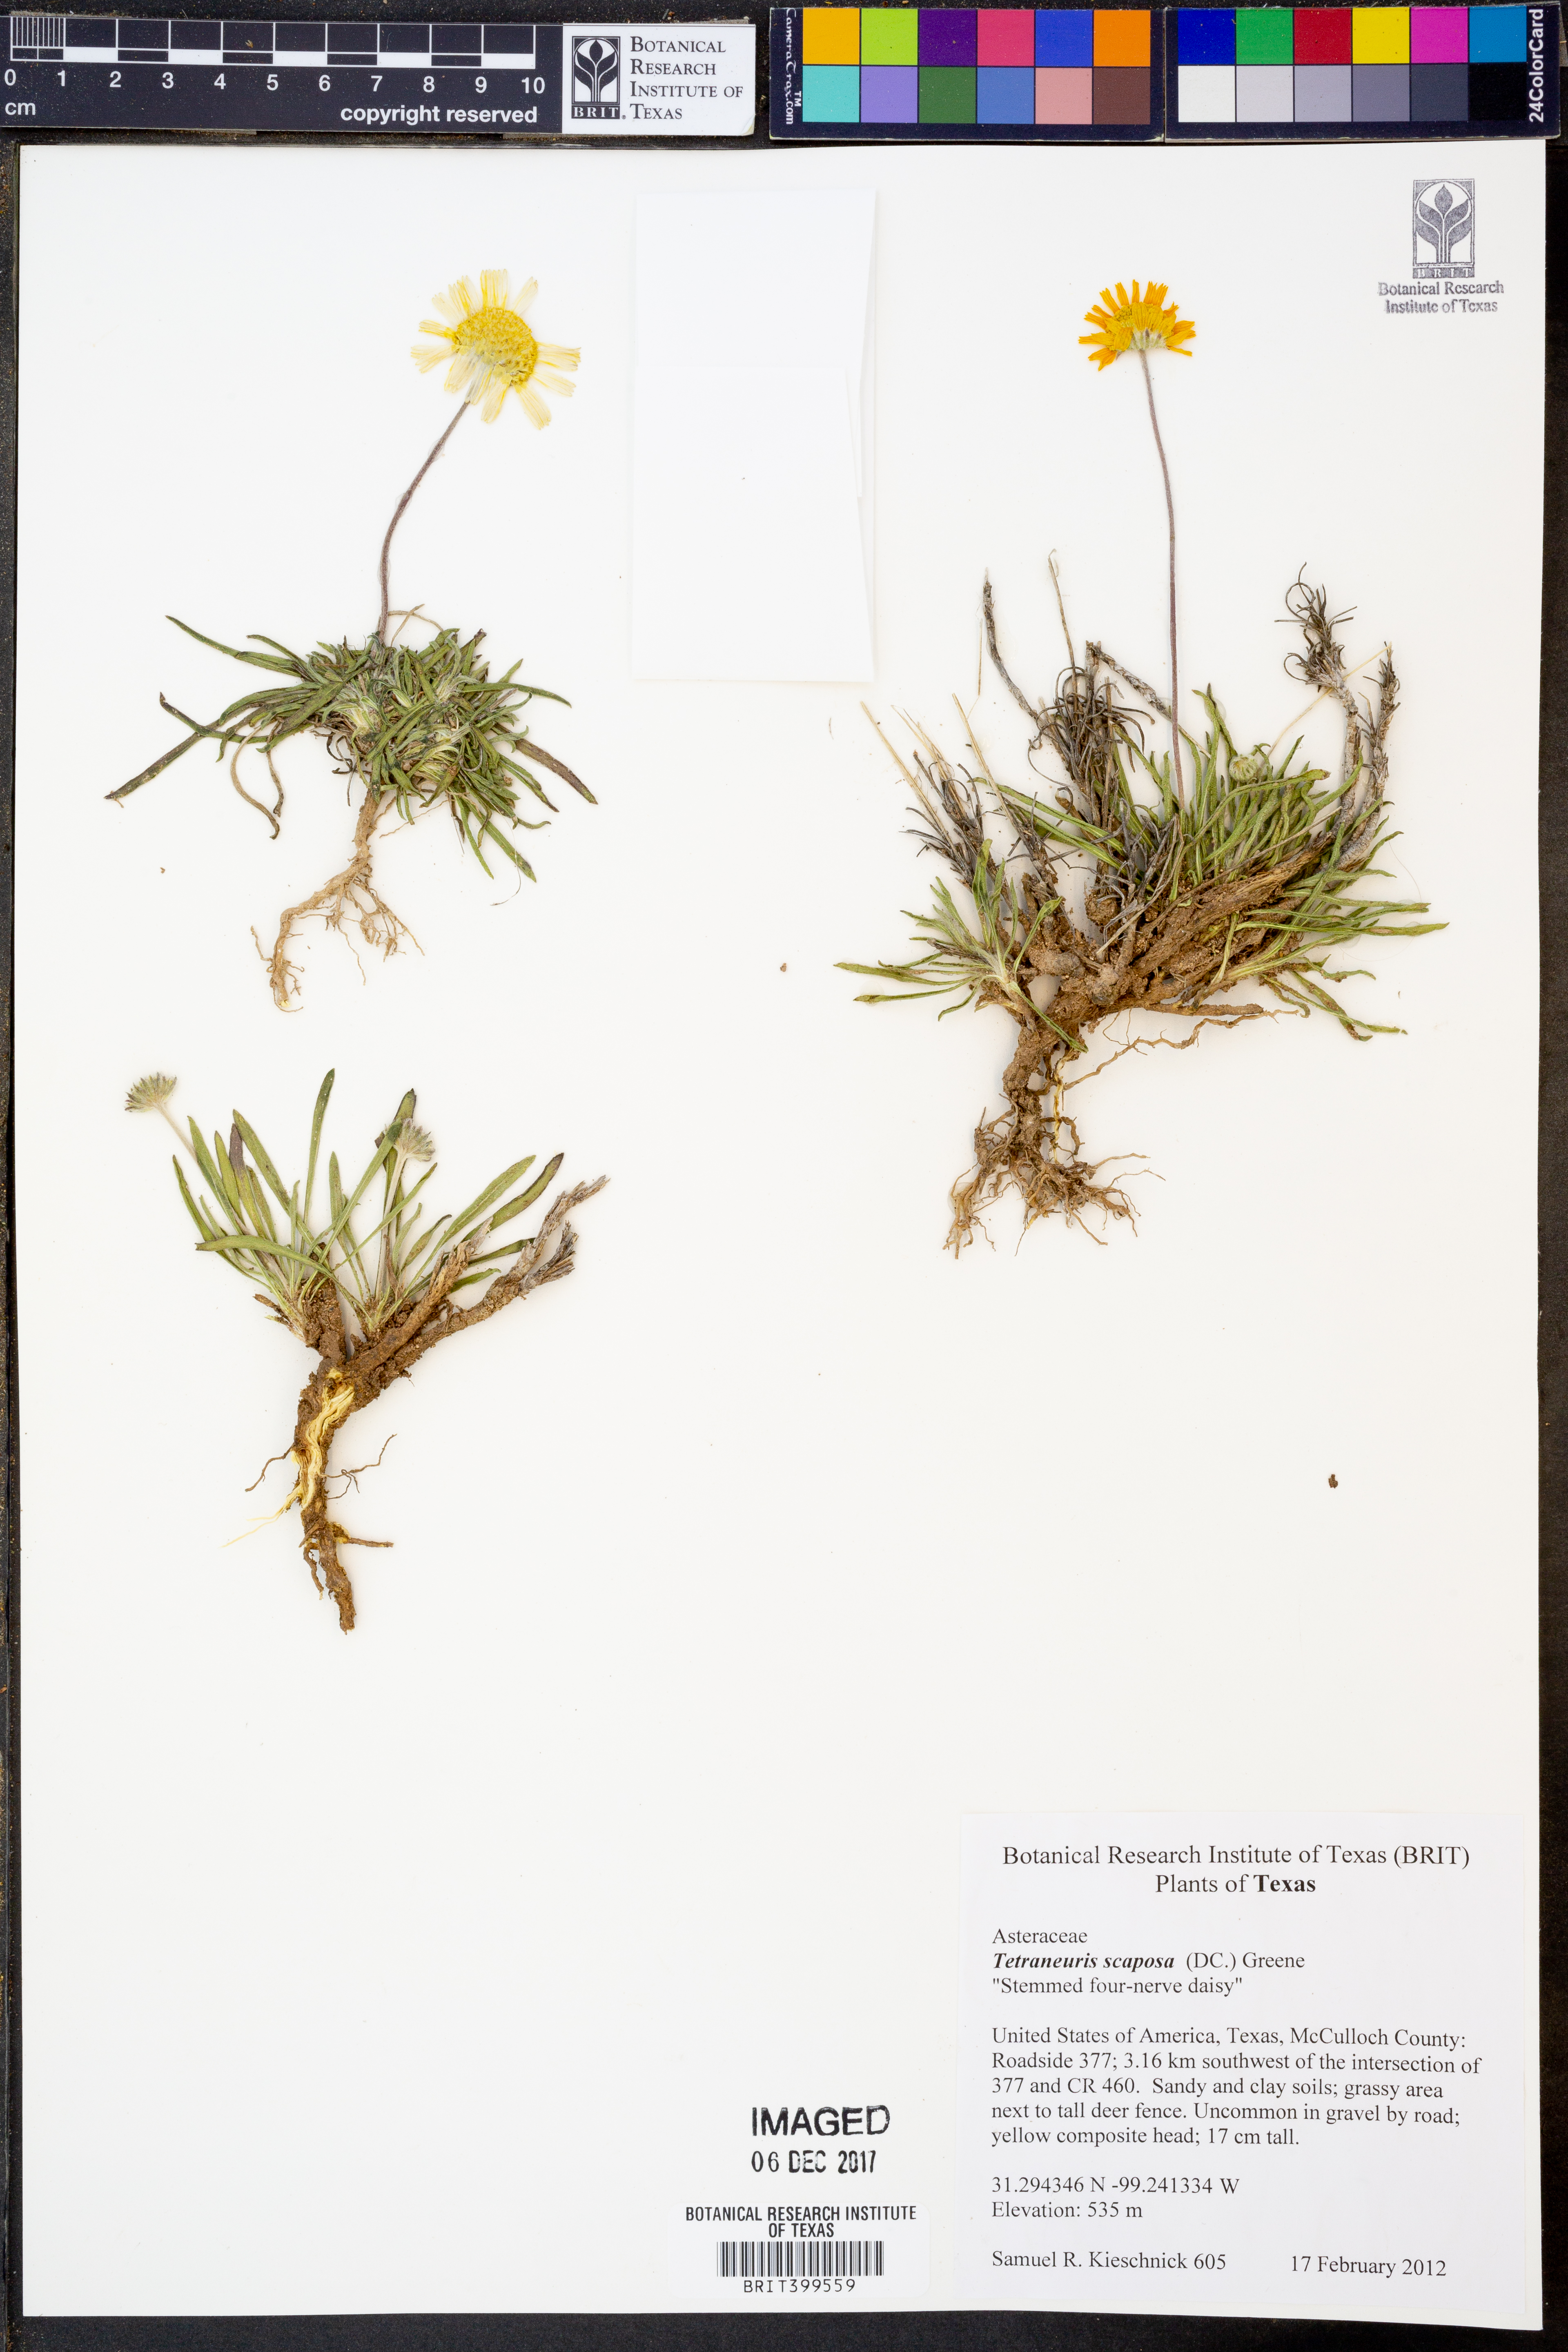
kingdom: Plantae
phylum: Tracheophyta
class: Magnoliopsida
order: Asterales
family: Asteraceae
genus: Tetraneuris
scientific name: Tetraneuris scaposa
